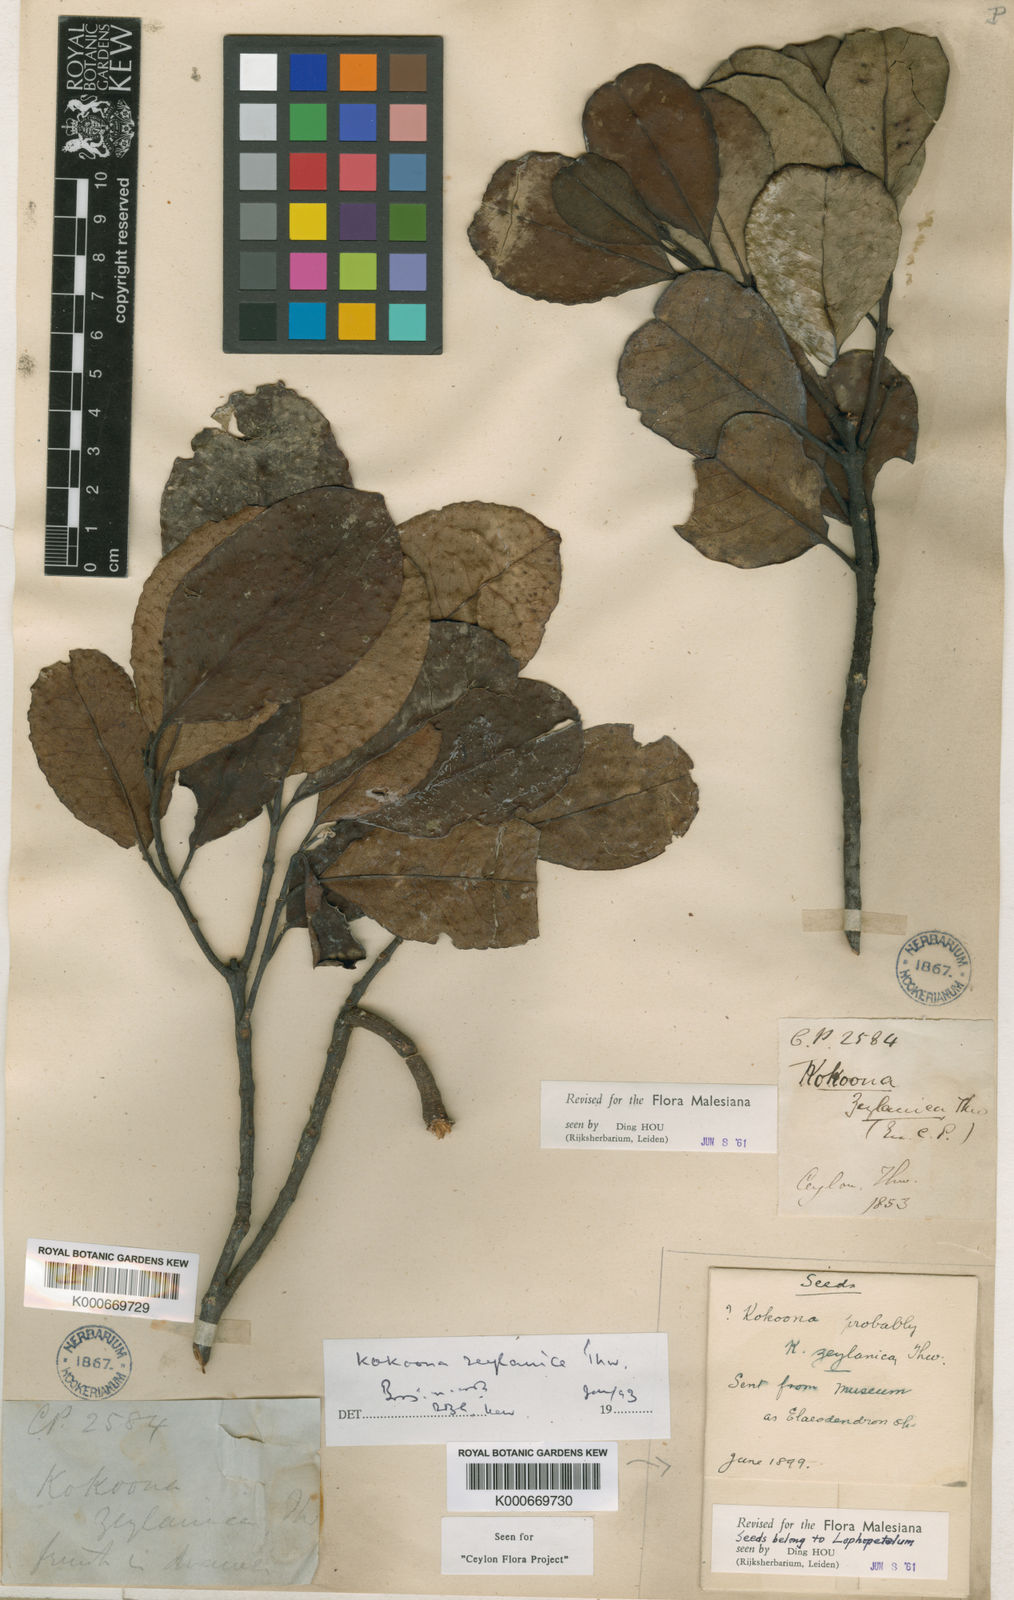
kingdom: Plantae
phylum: Tracheophyta
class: Magnoliopsida
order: Celastrales
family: Celastraceae
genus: Kokoona
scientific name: Kokoona zeylanica
